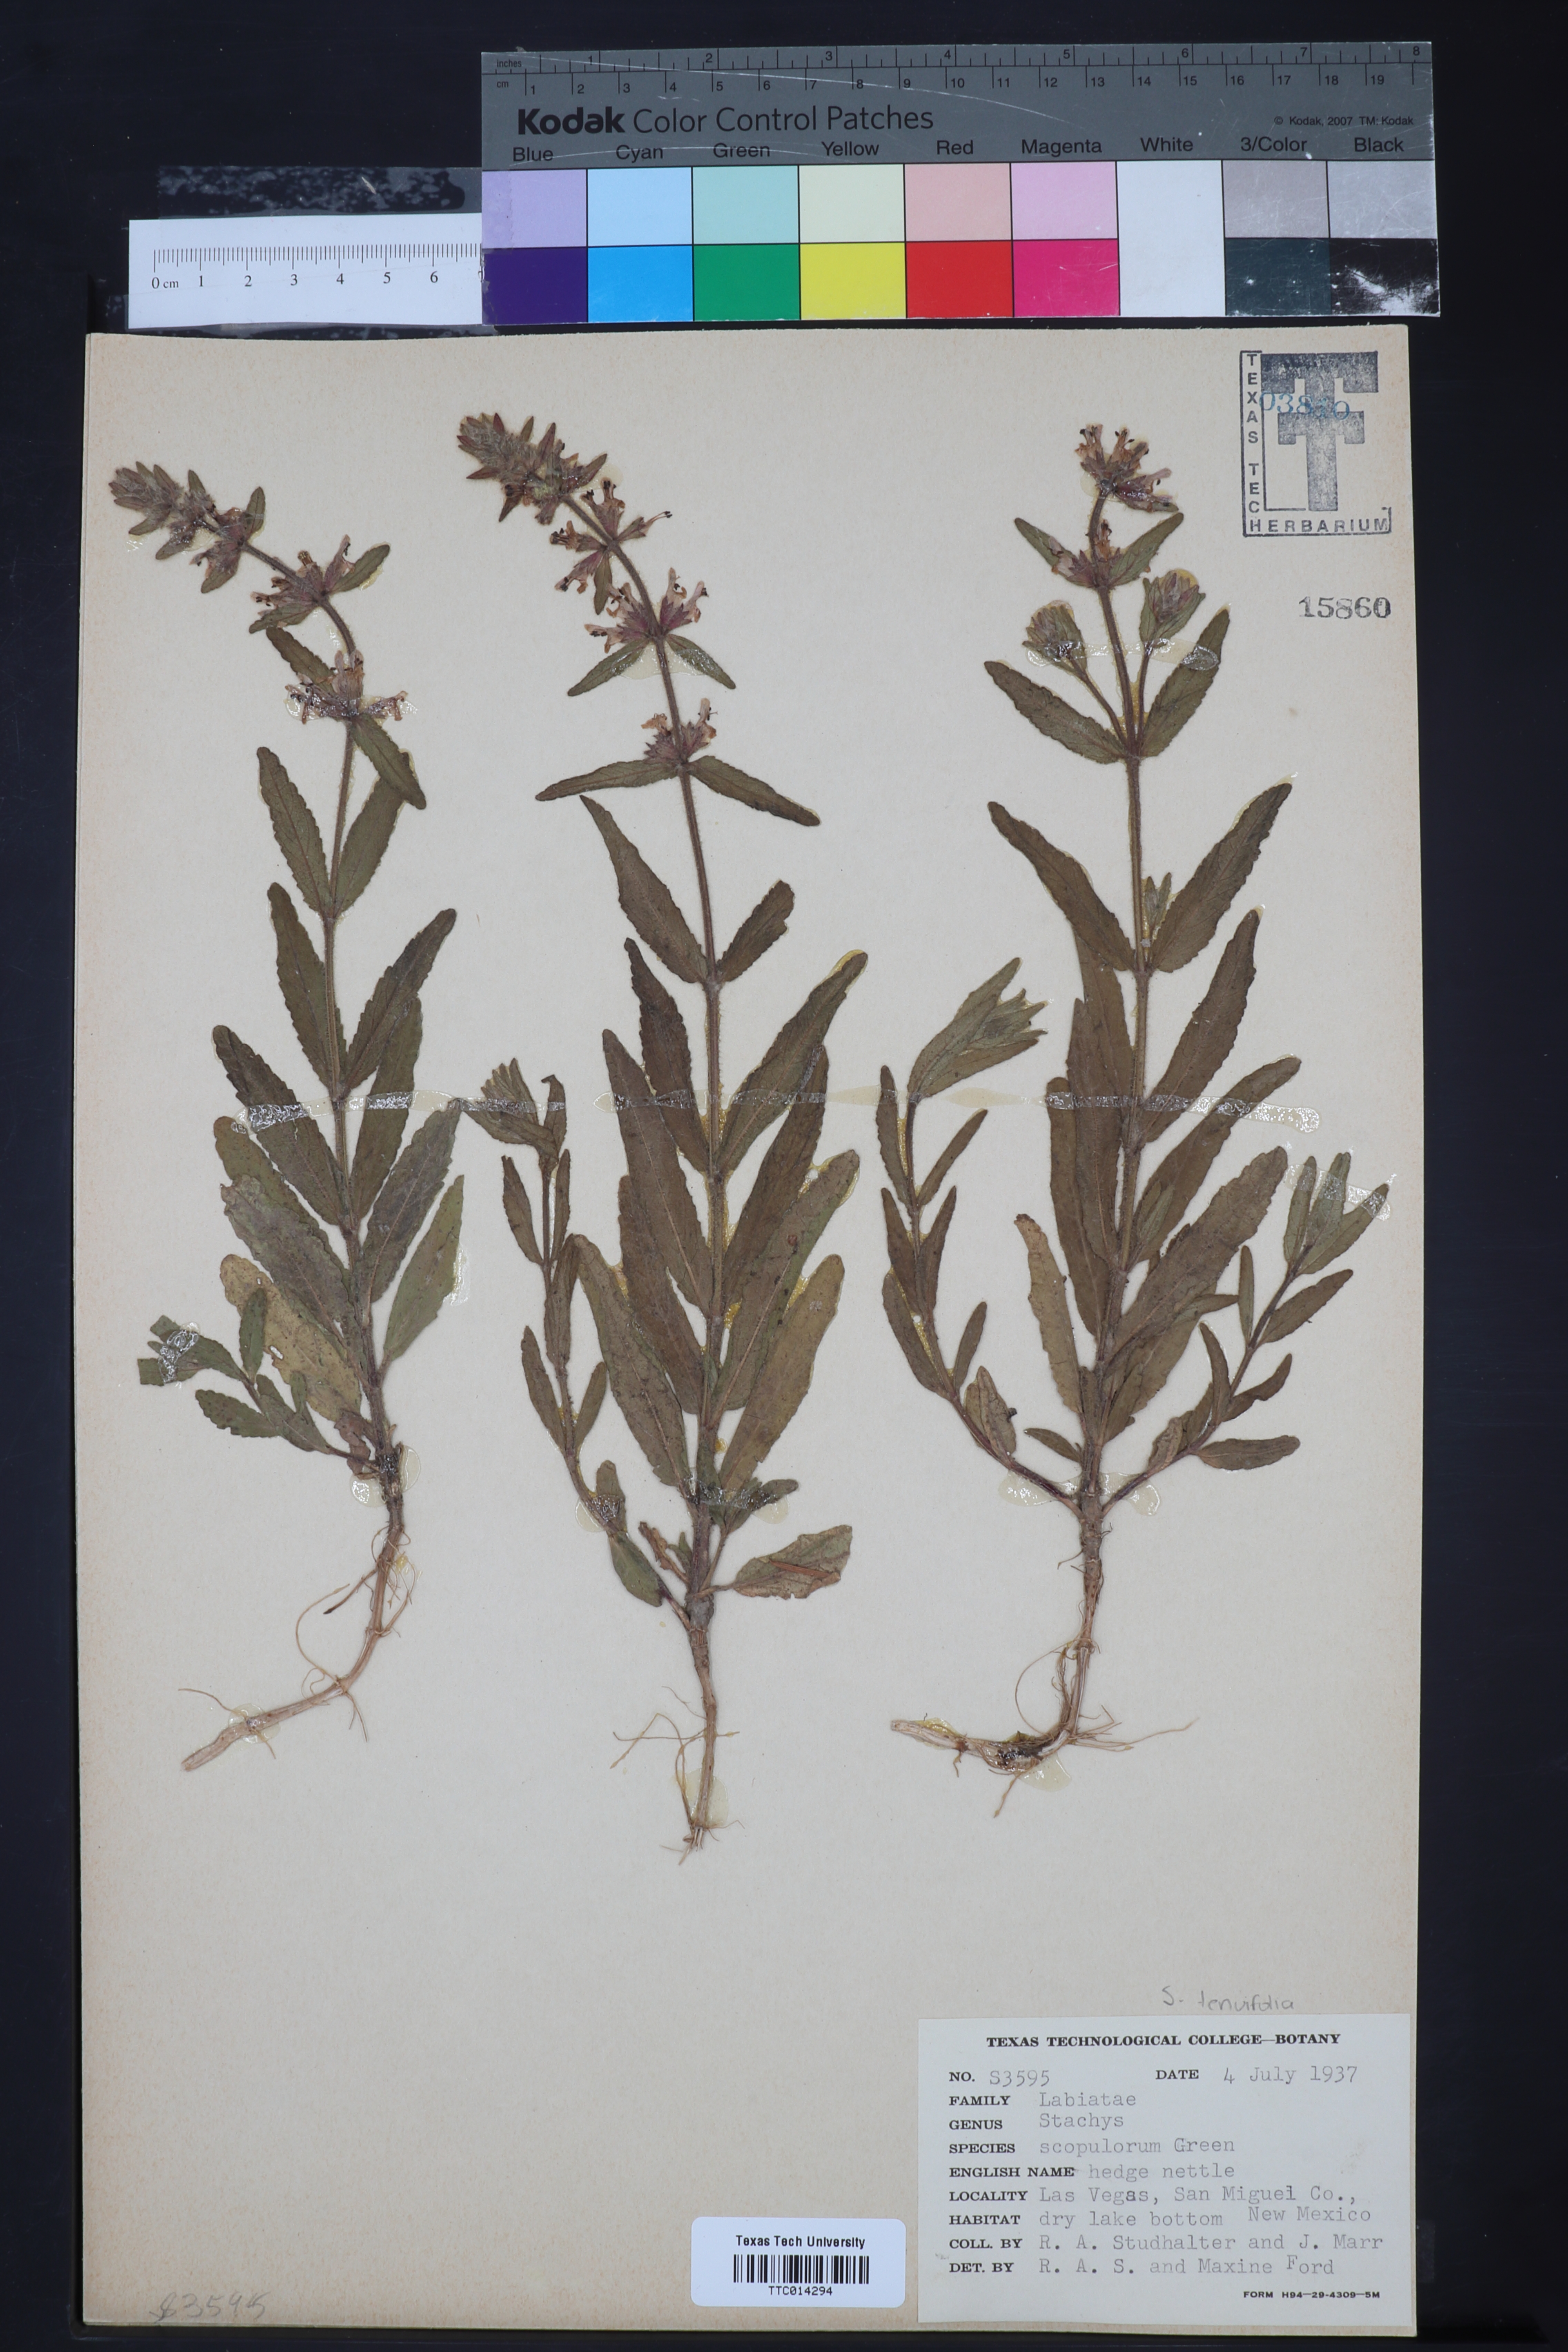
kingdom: Plantae
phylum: Tracheophyta
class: Magnoliopsida
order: Lamiales
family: Lamiaceae
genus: Stachys
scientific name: Stachys pilosa
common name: Hairy hedge-nettle
